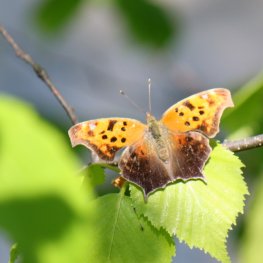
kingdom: Animalia
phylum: Arthropoda
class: Insecta
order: Lepidoptera
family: Nymphalidae
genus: Polygonia
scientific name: Polygonia interrogationis
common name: Question Mark
